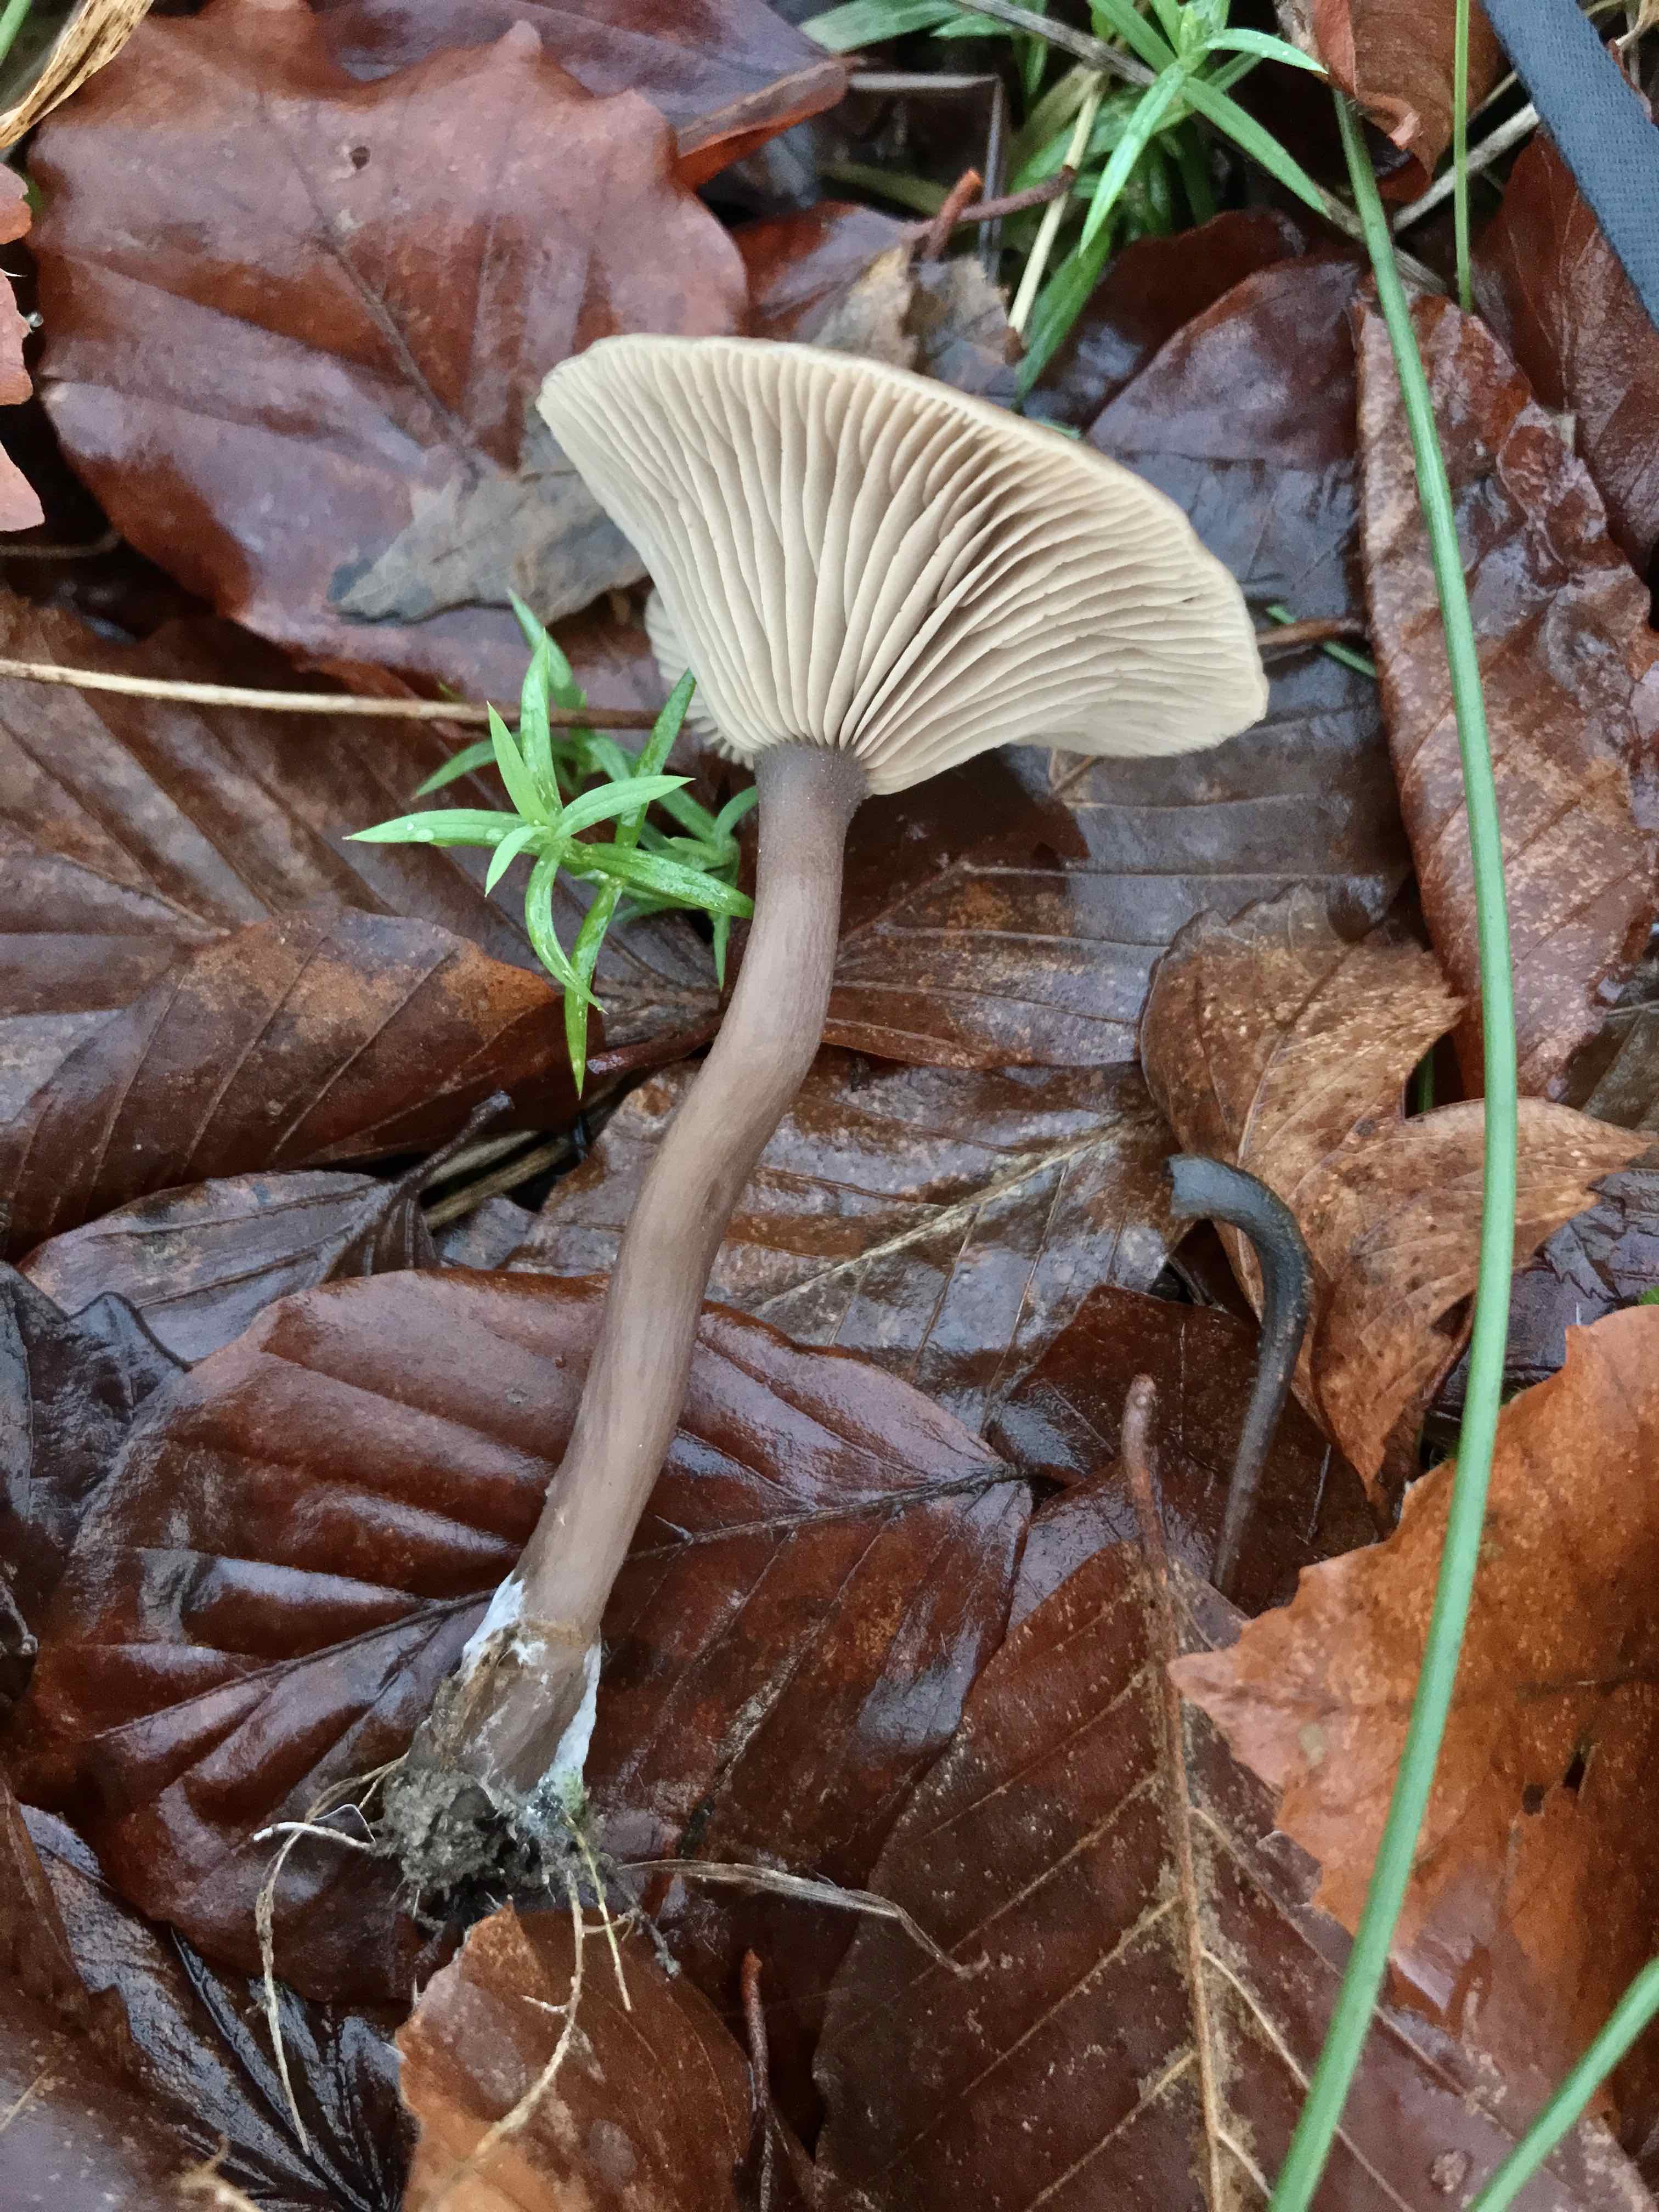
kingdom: Fungi
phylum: Basidiomycota
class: Agaricomycetes
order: Agaricales
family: Pseudoclitocybaceae
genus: Pseudoclitocybe
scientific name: Pseudoclitocybe cyathiformis
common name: almindelig bægertragthat
